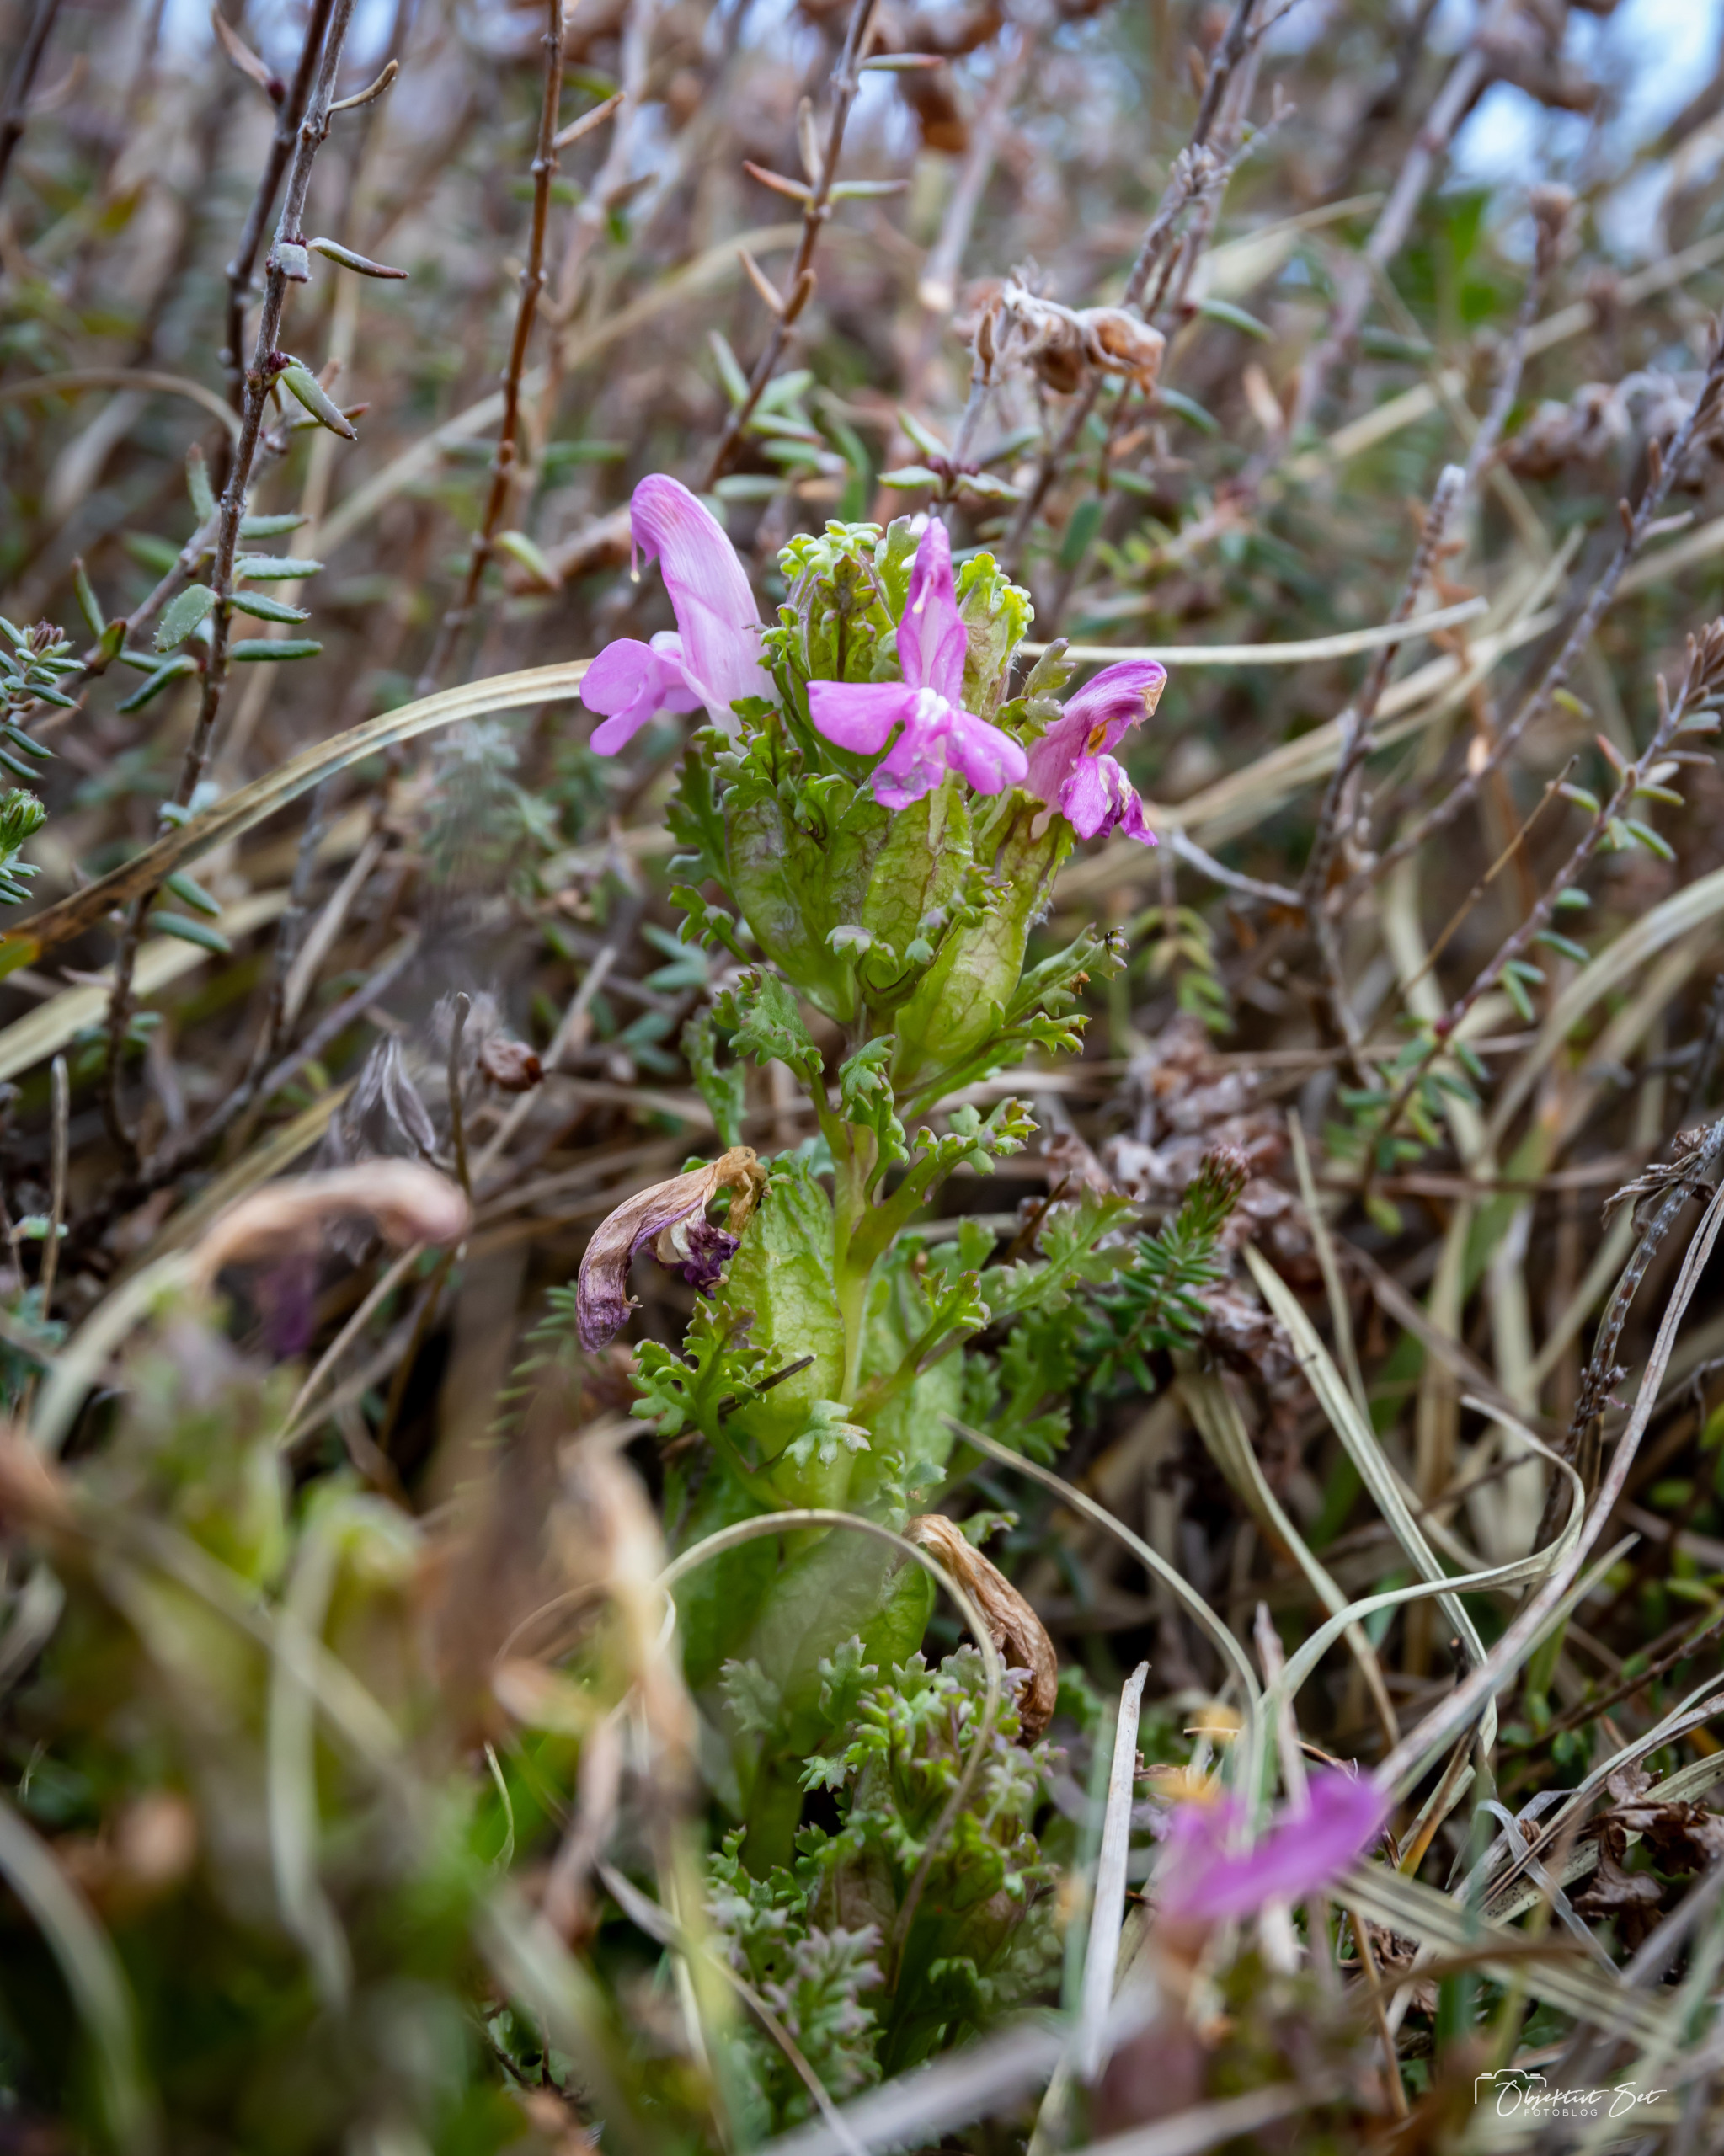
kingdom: Plantae
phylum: Tracheophyta
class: Magnoliopsida
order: Lamiales
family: Orobanchaceae
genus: Pedicularis
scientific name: Pedicularis sylvatica
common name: Mose-troldurt
